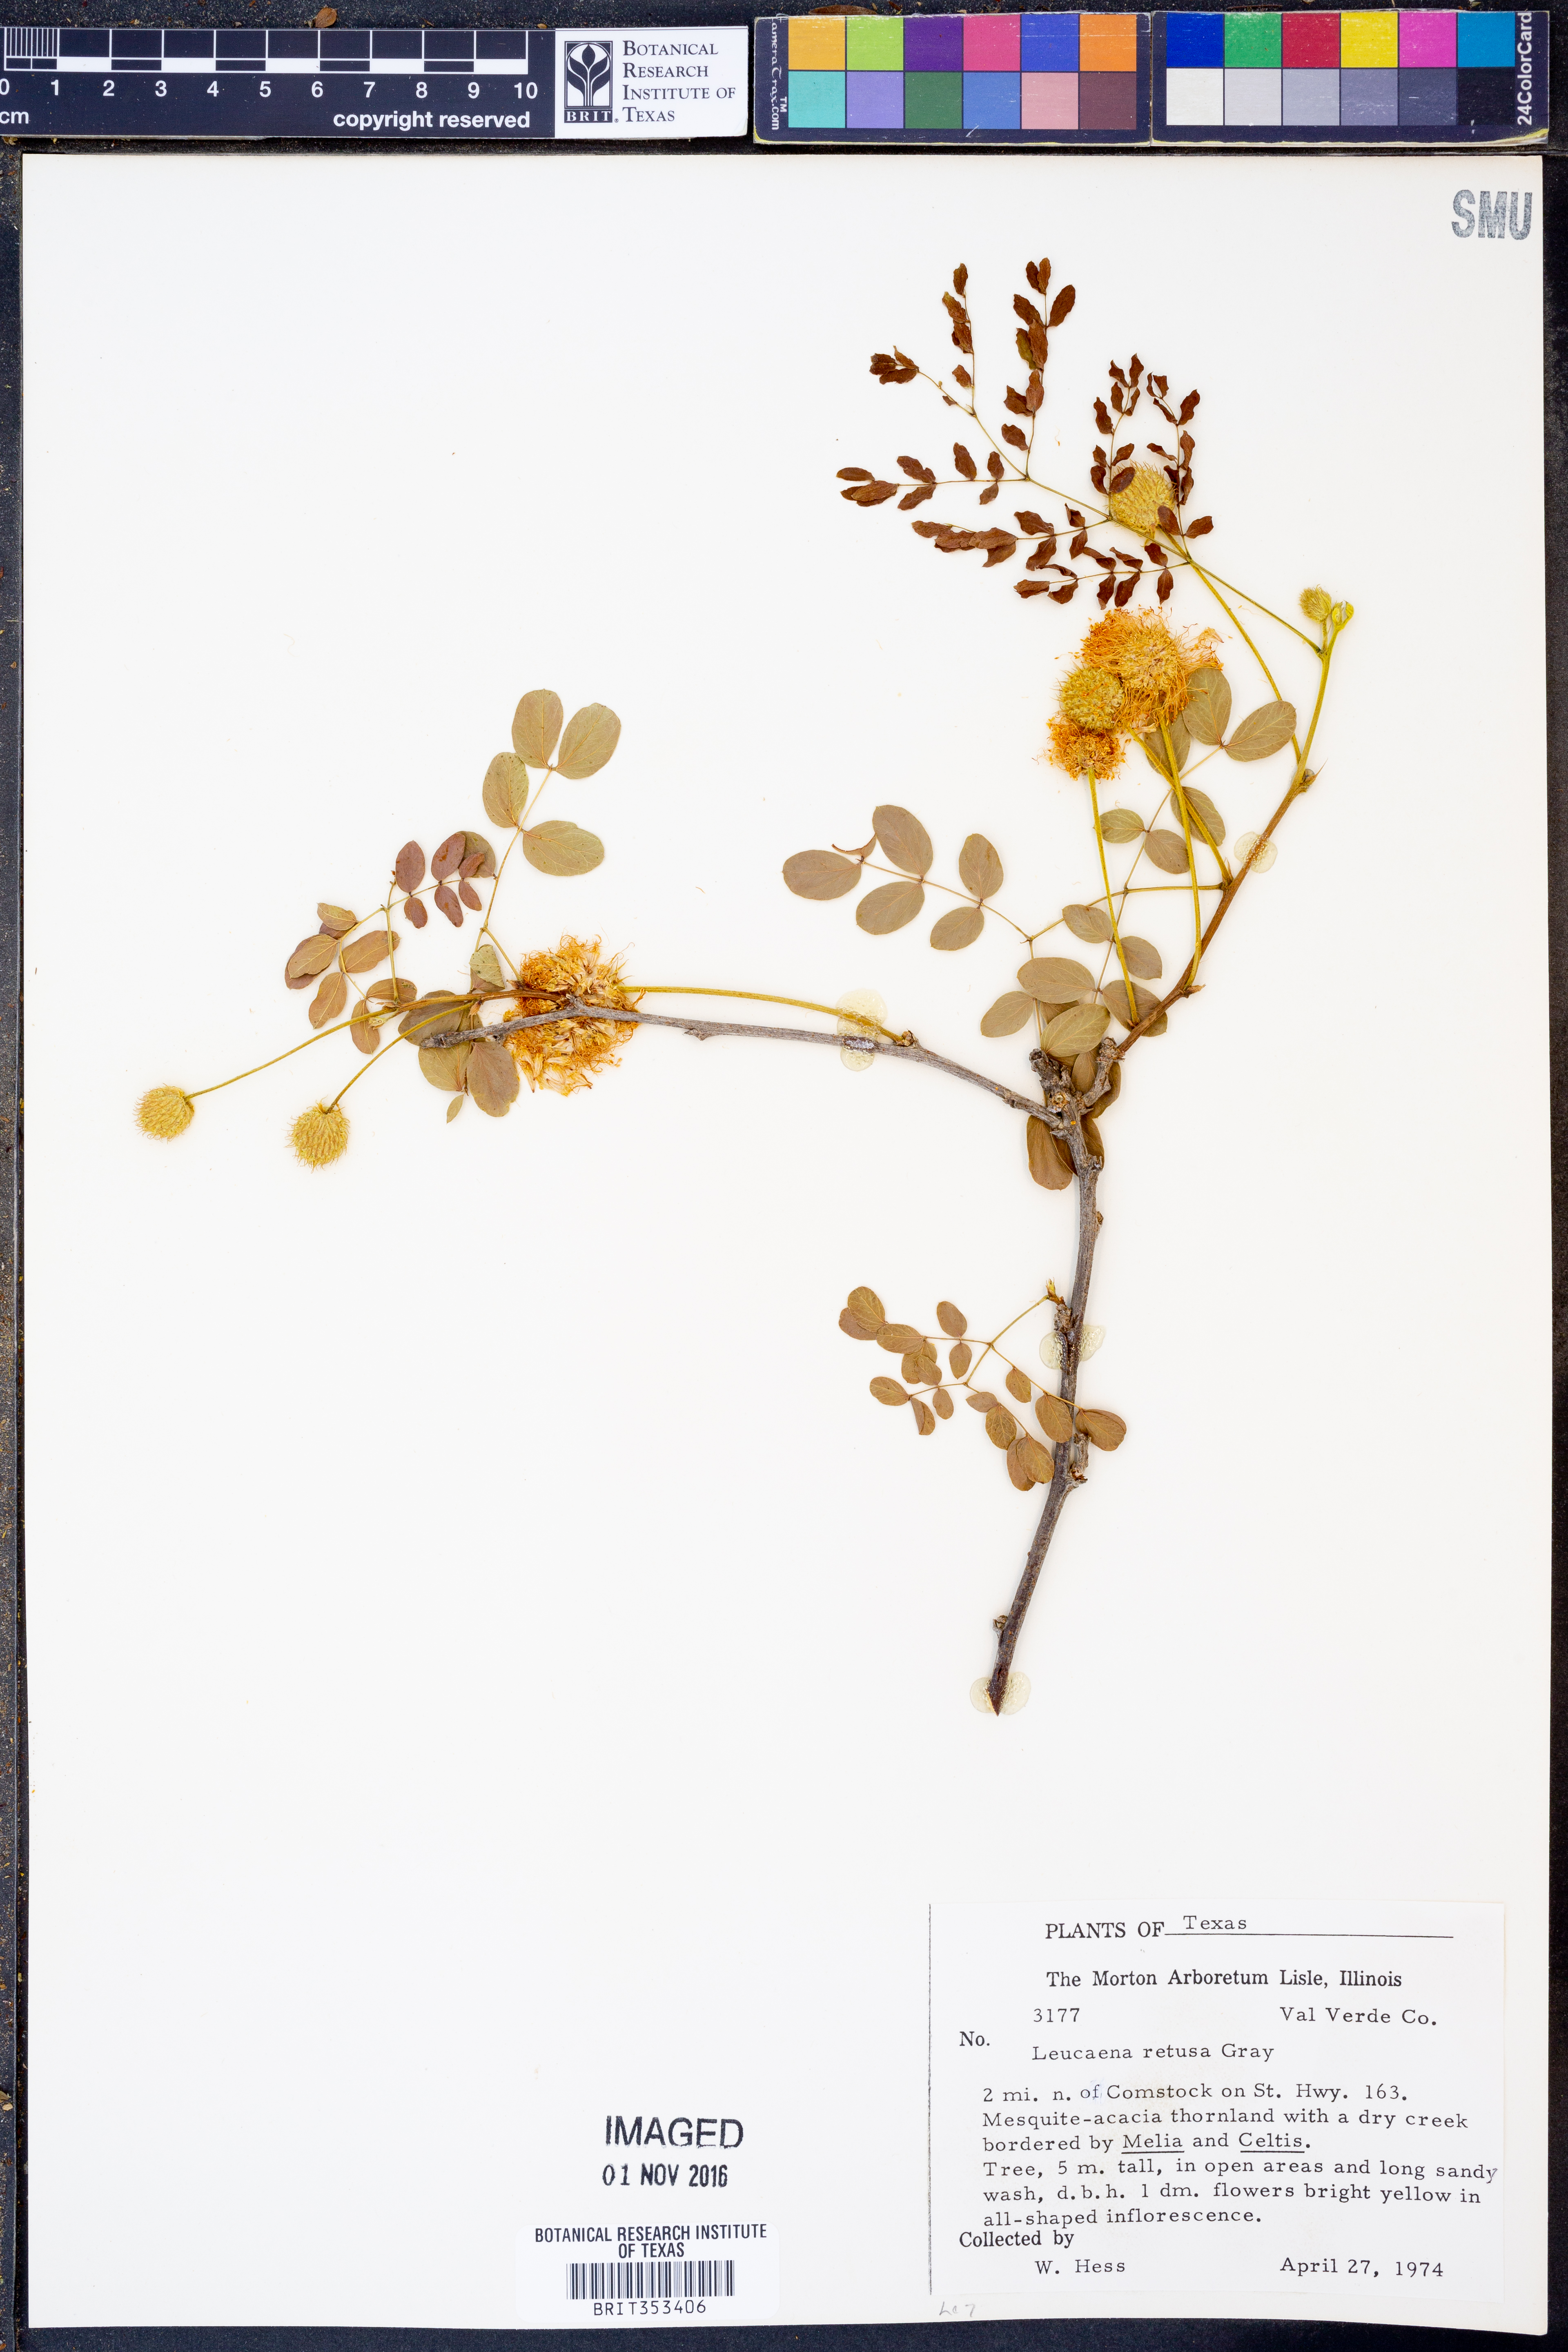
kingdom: Plantae
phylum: Tracheophyta
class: Magnoliopsida
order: Fabales
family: Fabaceae
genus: Leucaena
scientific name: Leucaena retusa
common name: Littleleaf leadtree
